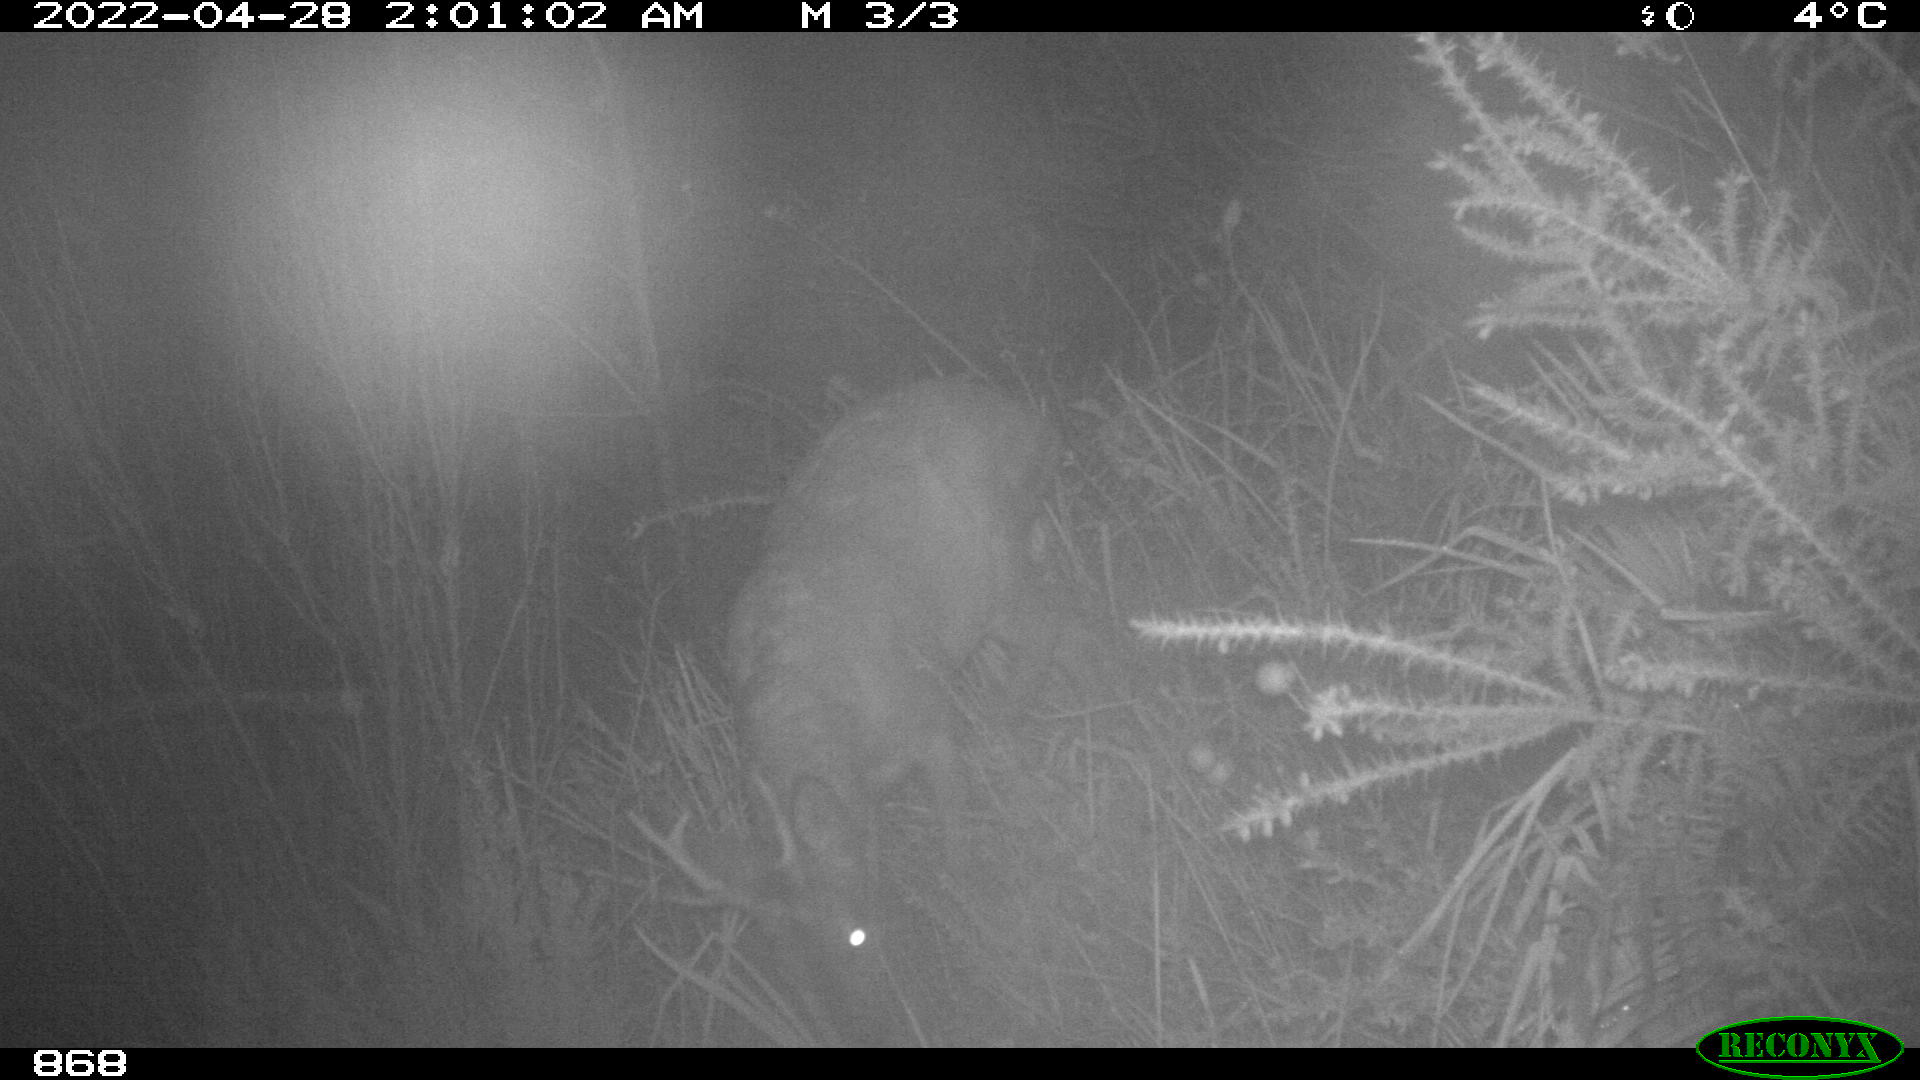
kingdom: Animalia
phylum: Chordata
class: Mammalia
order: Artiodactyla
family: Cervidae
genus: Capreolus
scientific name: Capreolus capreolus
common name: Western roe deer
